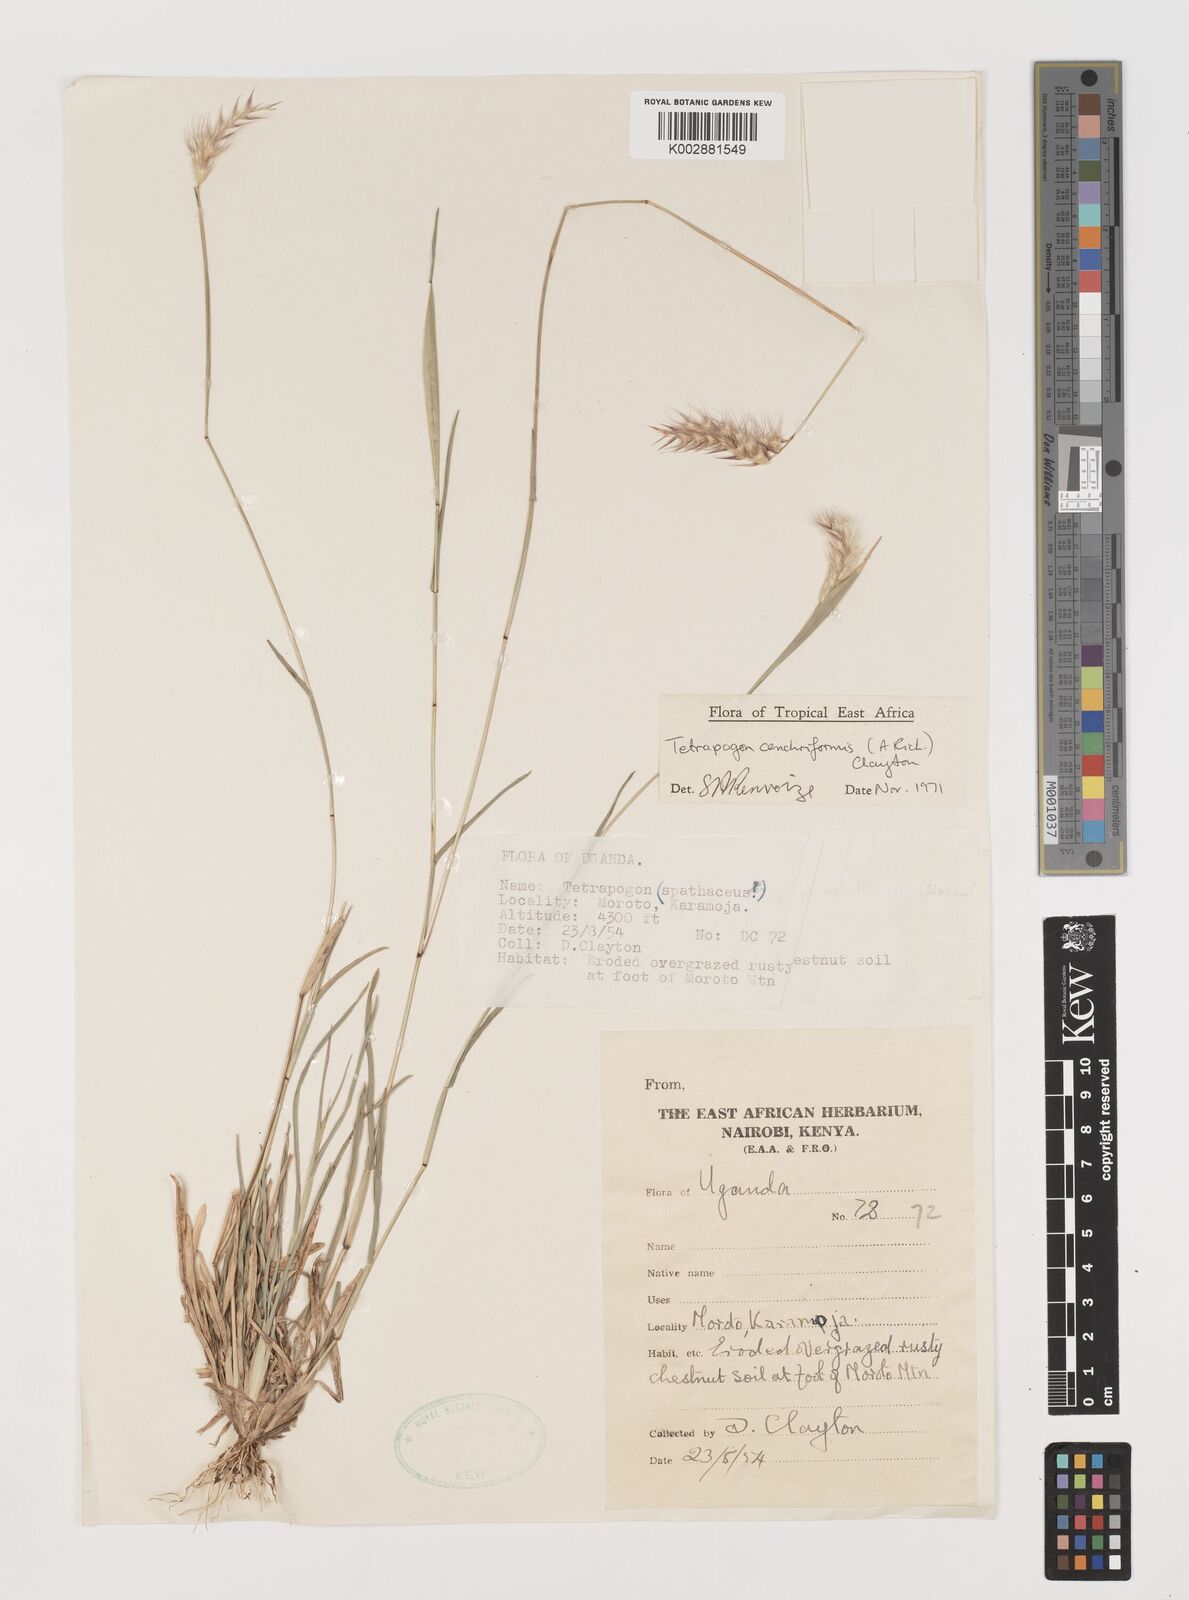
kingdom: Plantae
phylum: Tracheophyta
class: Liliopsida
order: Poales
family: Poaceae
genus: Tetrapogon
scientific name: Tetrapogon cenchriformis
